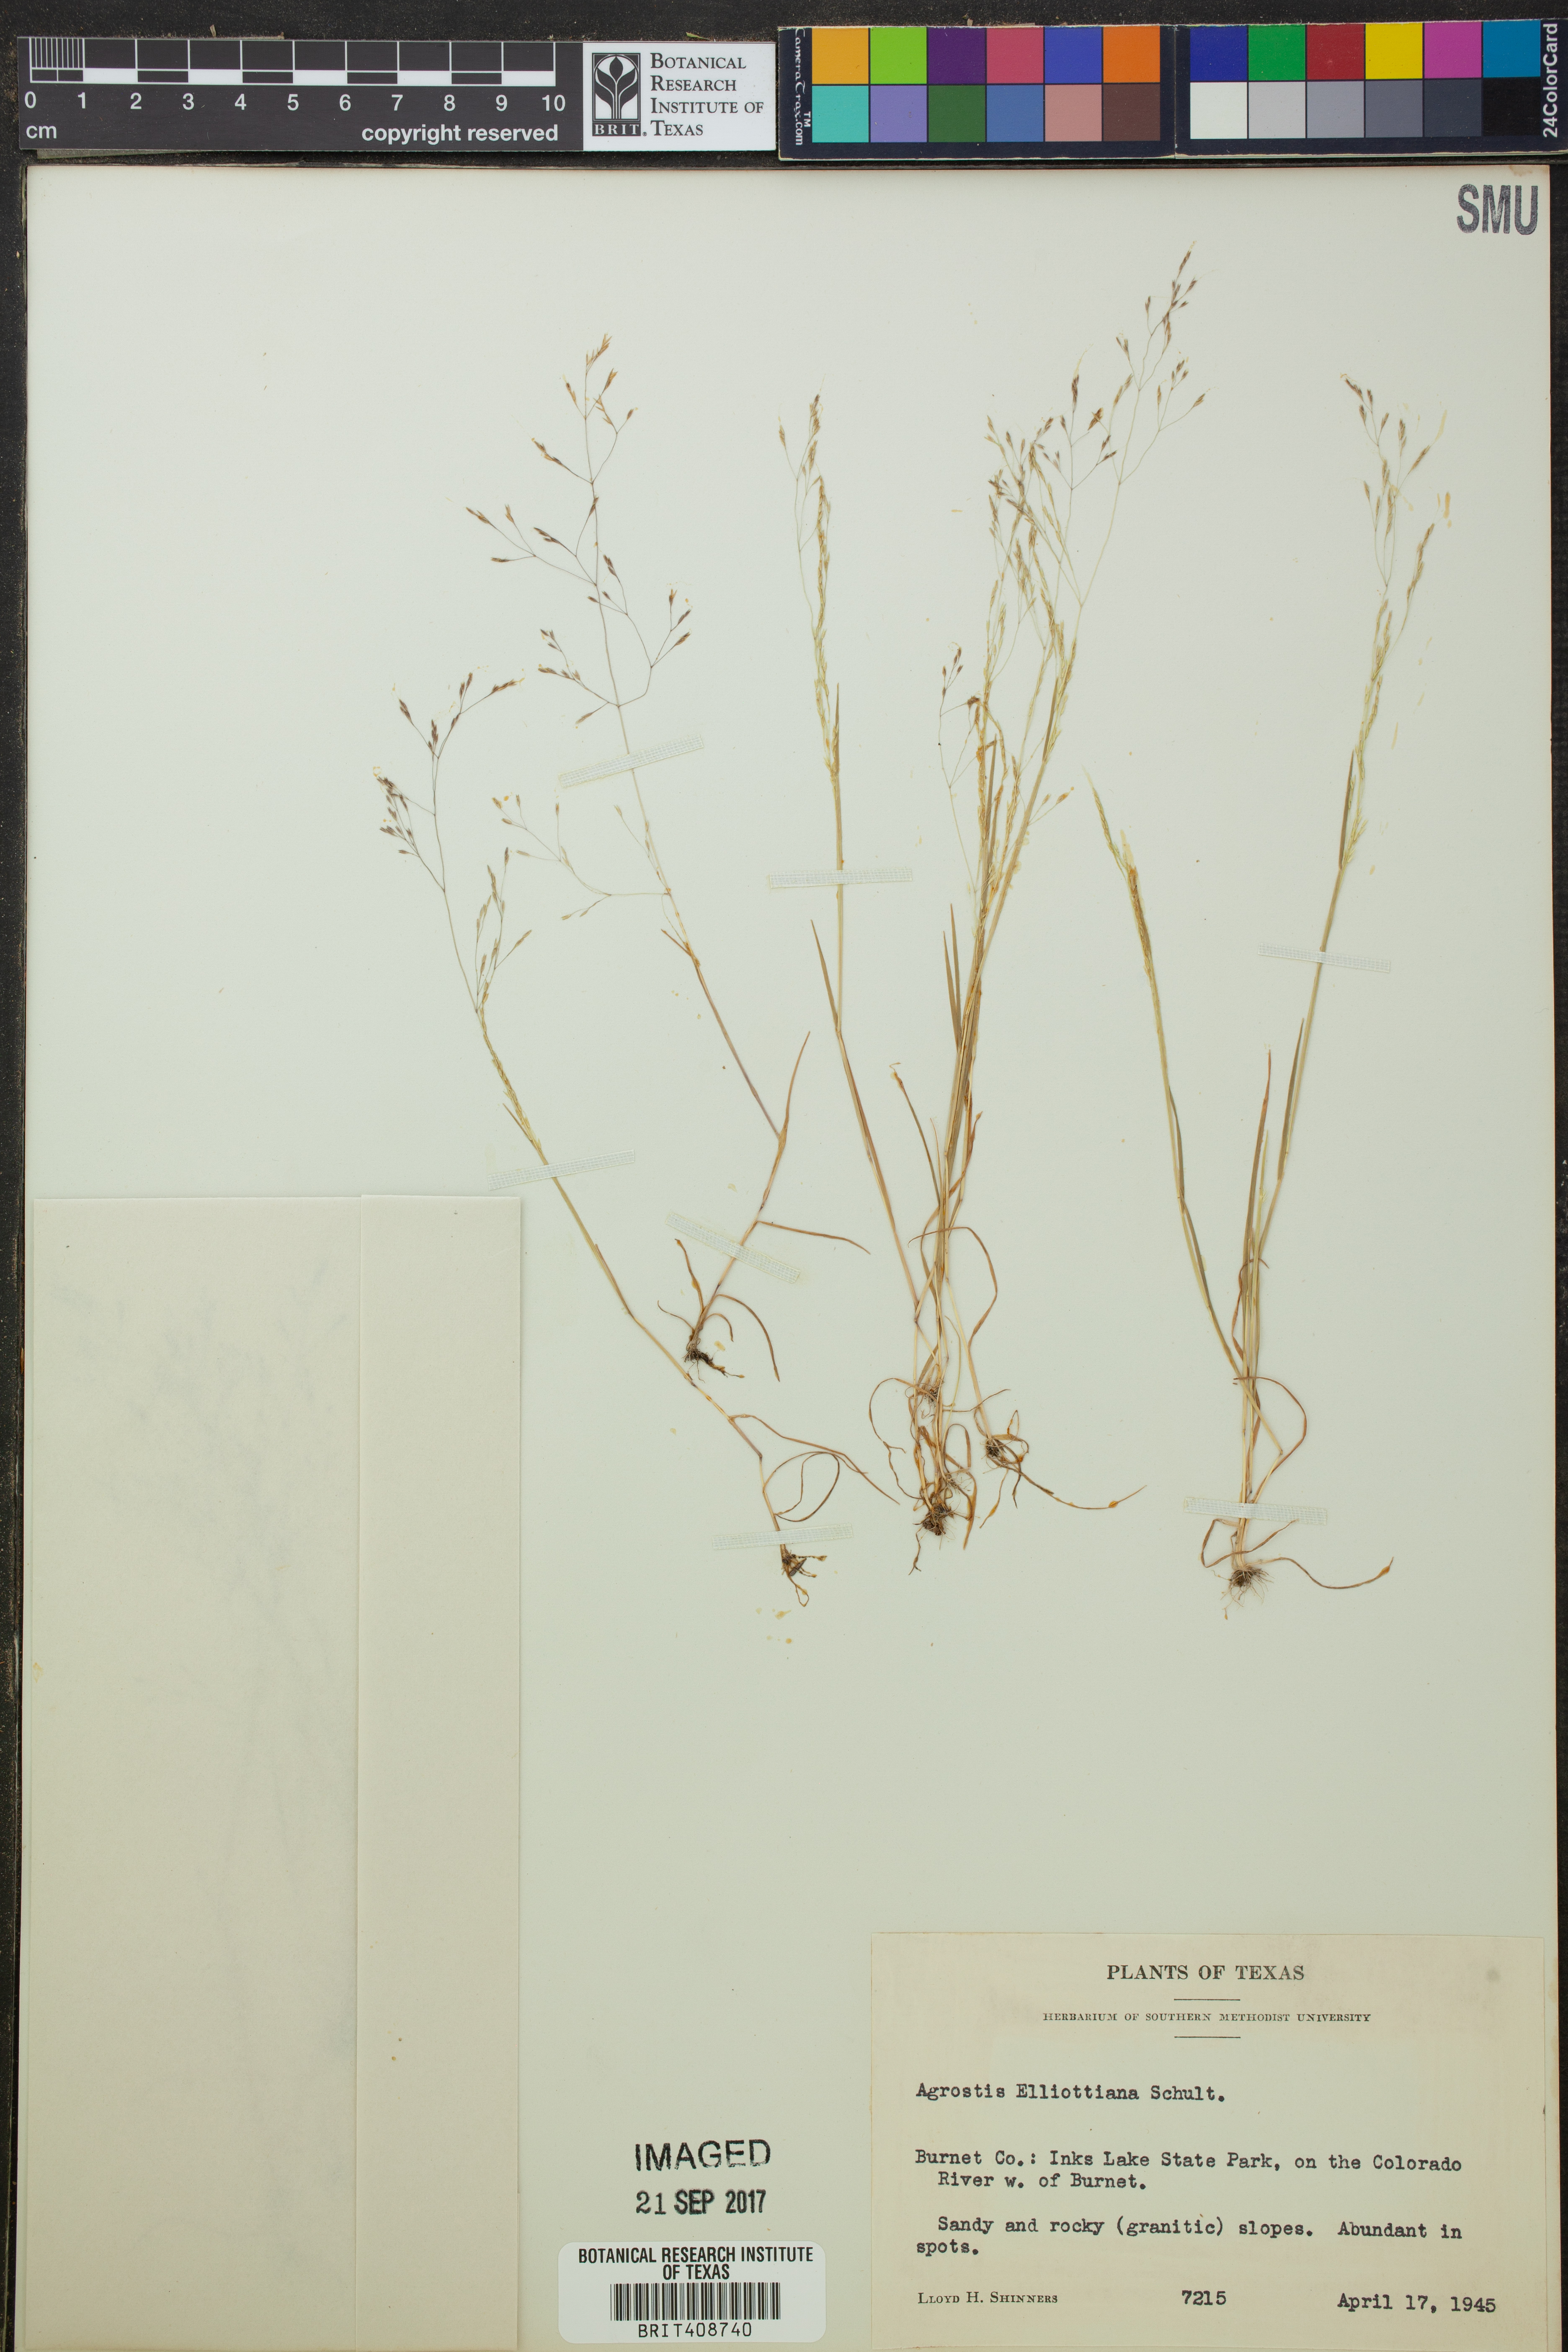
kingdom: Plantae
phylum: Tracheophyta
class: Liliopsida
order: Poales
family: Poaceae
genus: Agrostis
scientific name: Agrostis elliottiana
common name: Elliott's bent
